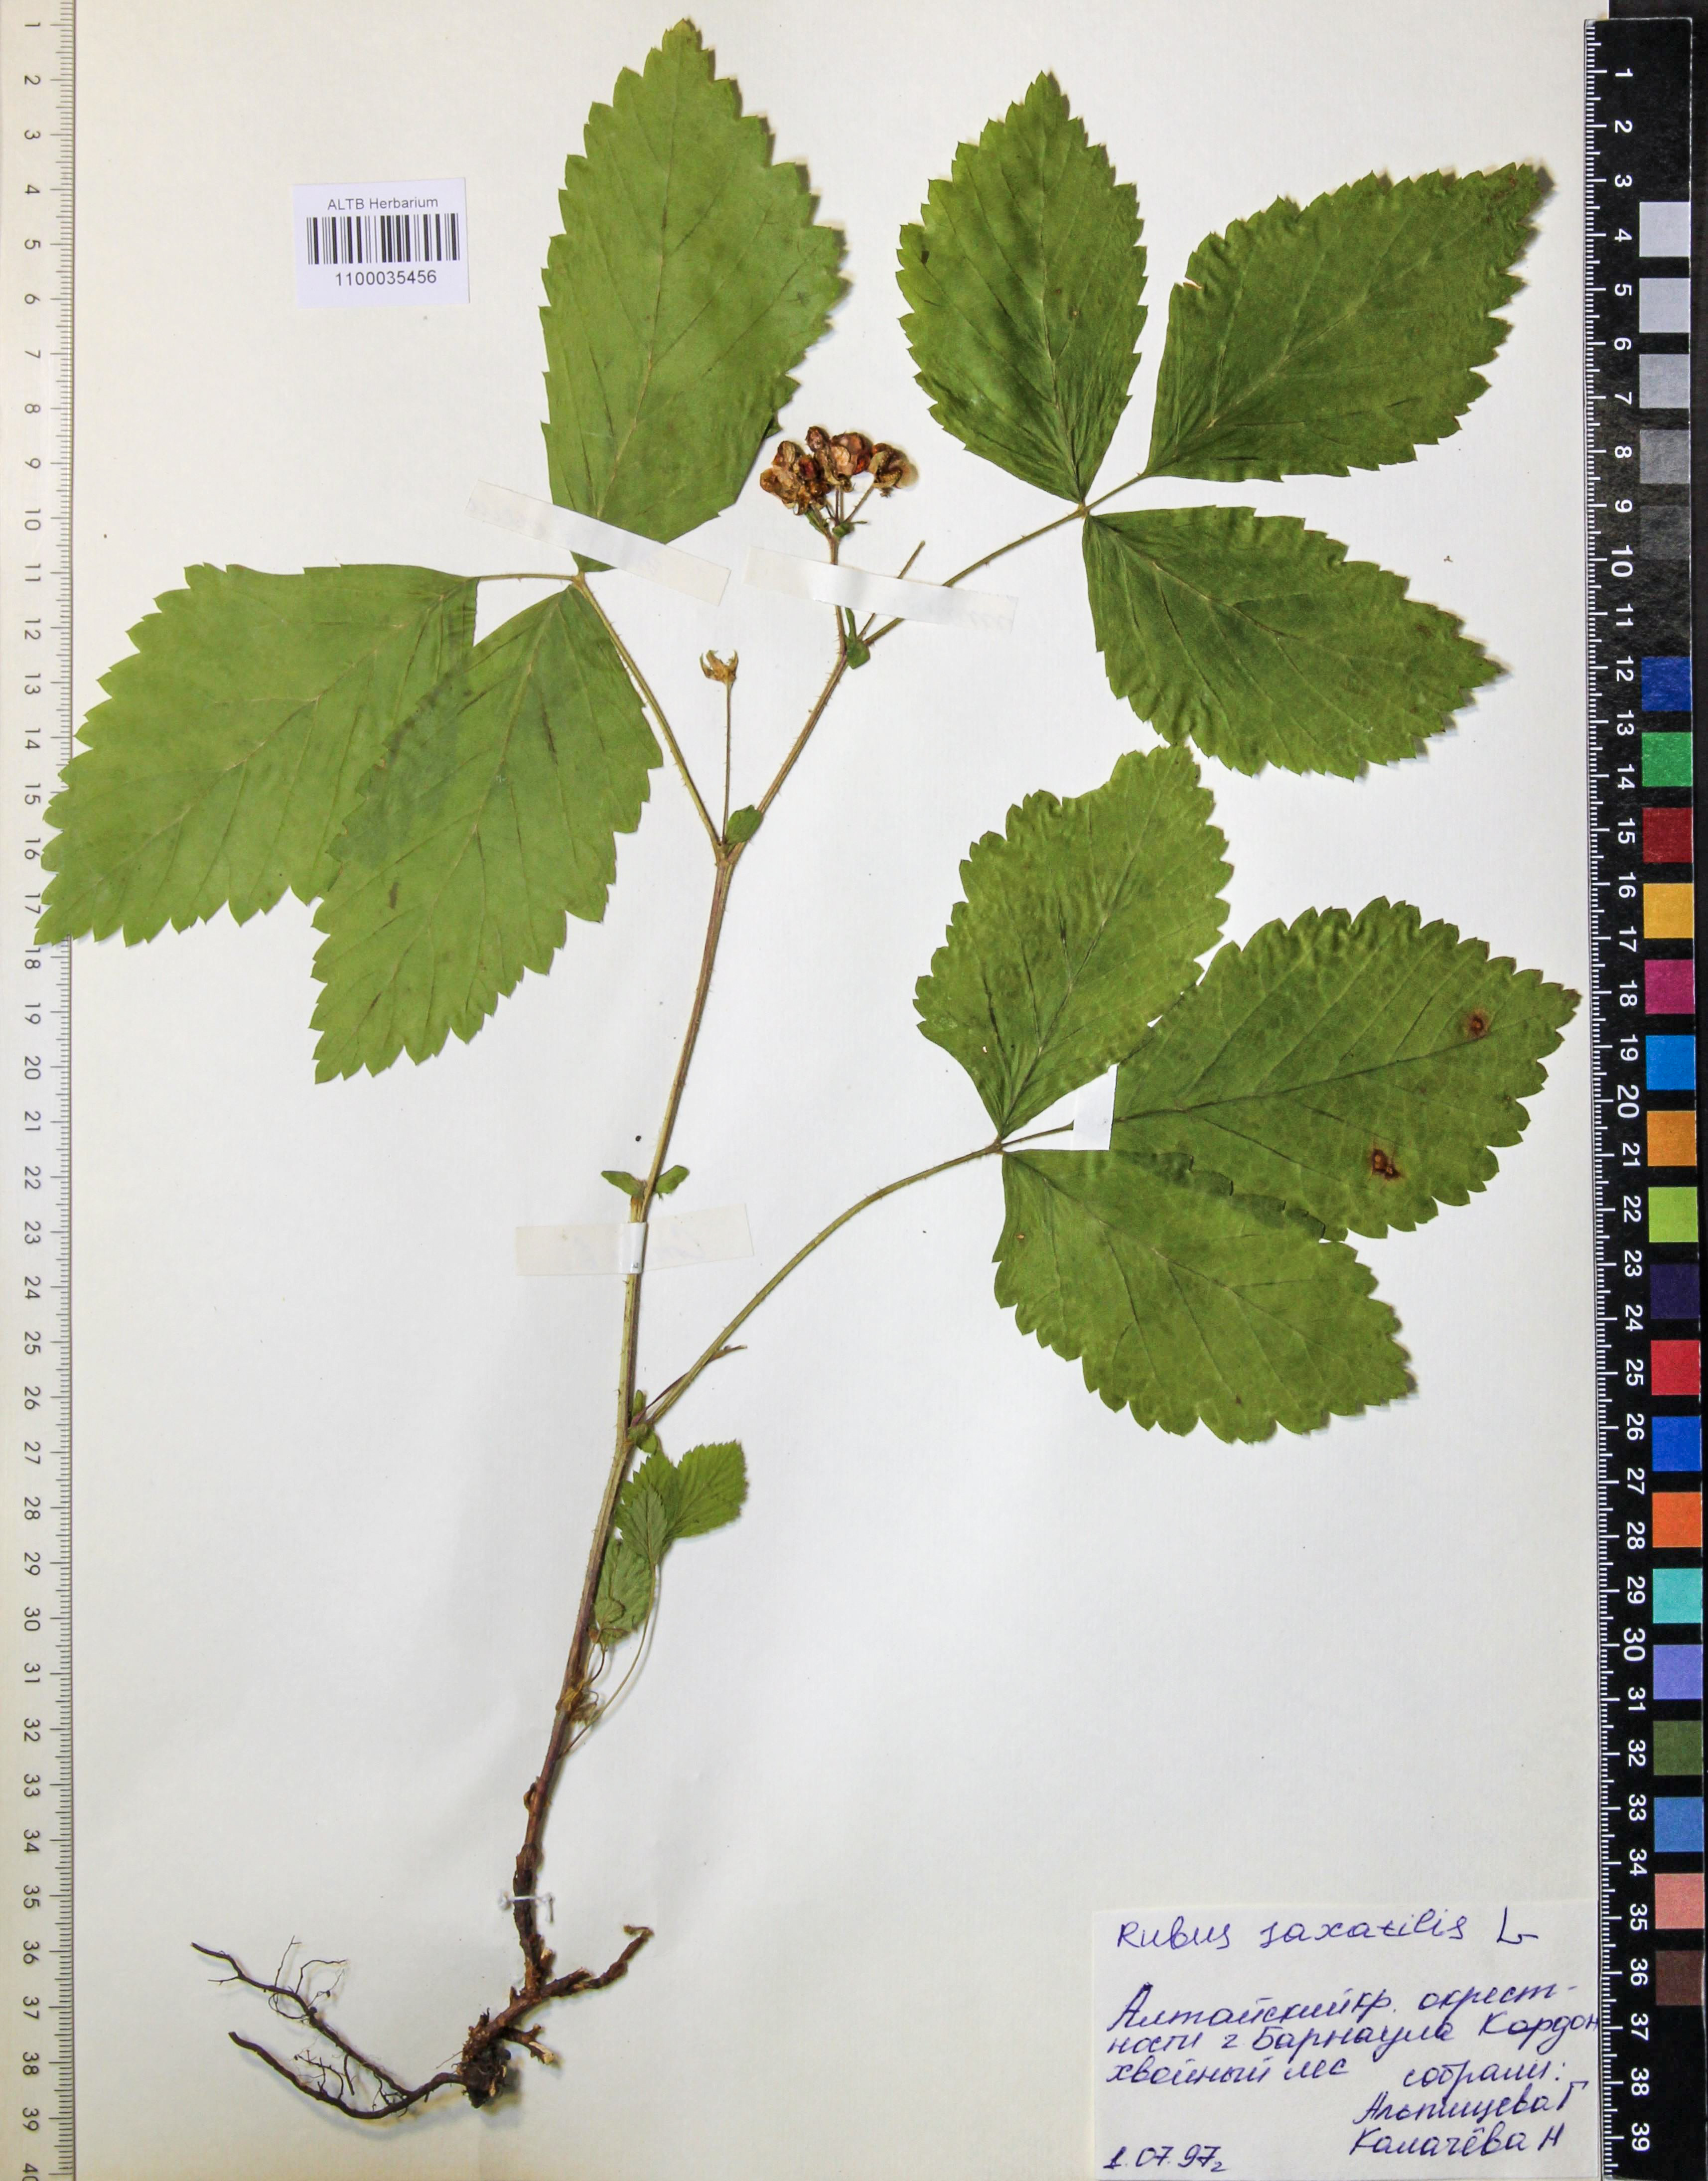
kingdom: Plantae
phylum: Tracheophyta
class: Magnoliopsida
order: Rosales
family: Rosaceae
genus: Rubus
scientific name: Rubus saxatilis
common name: Stone bramble
